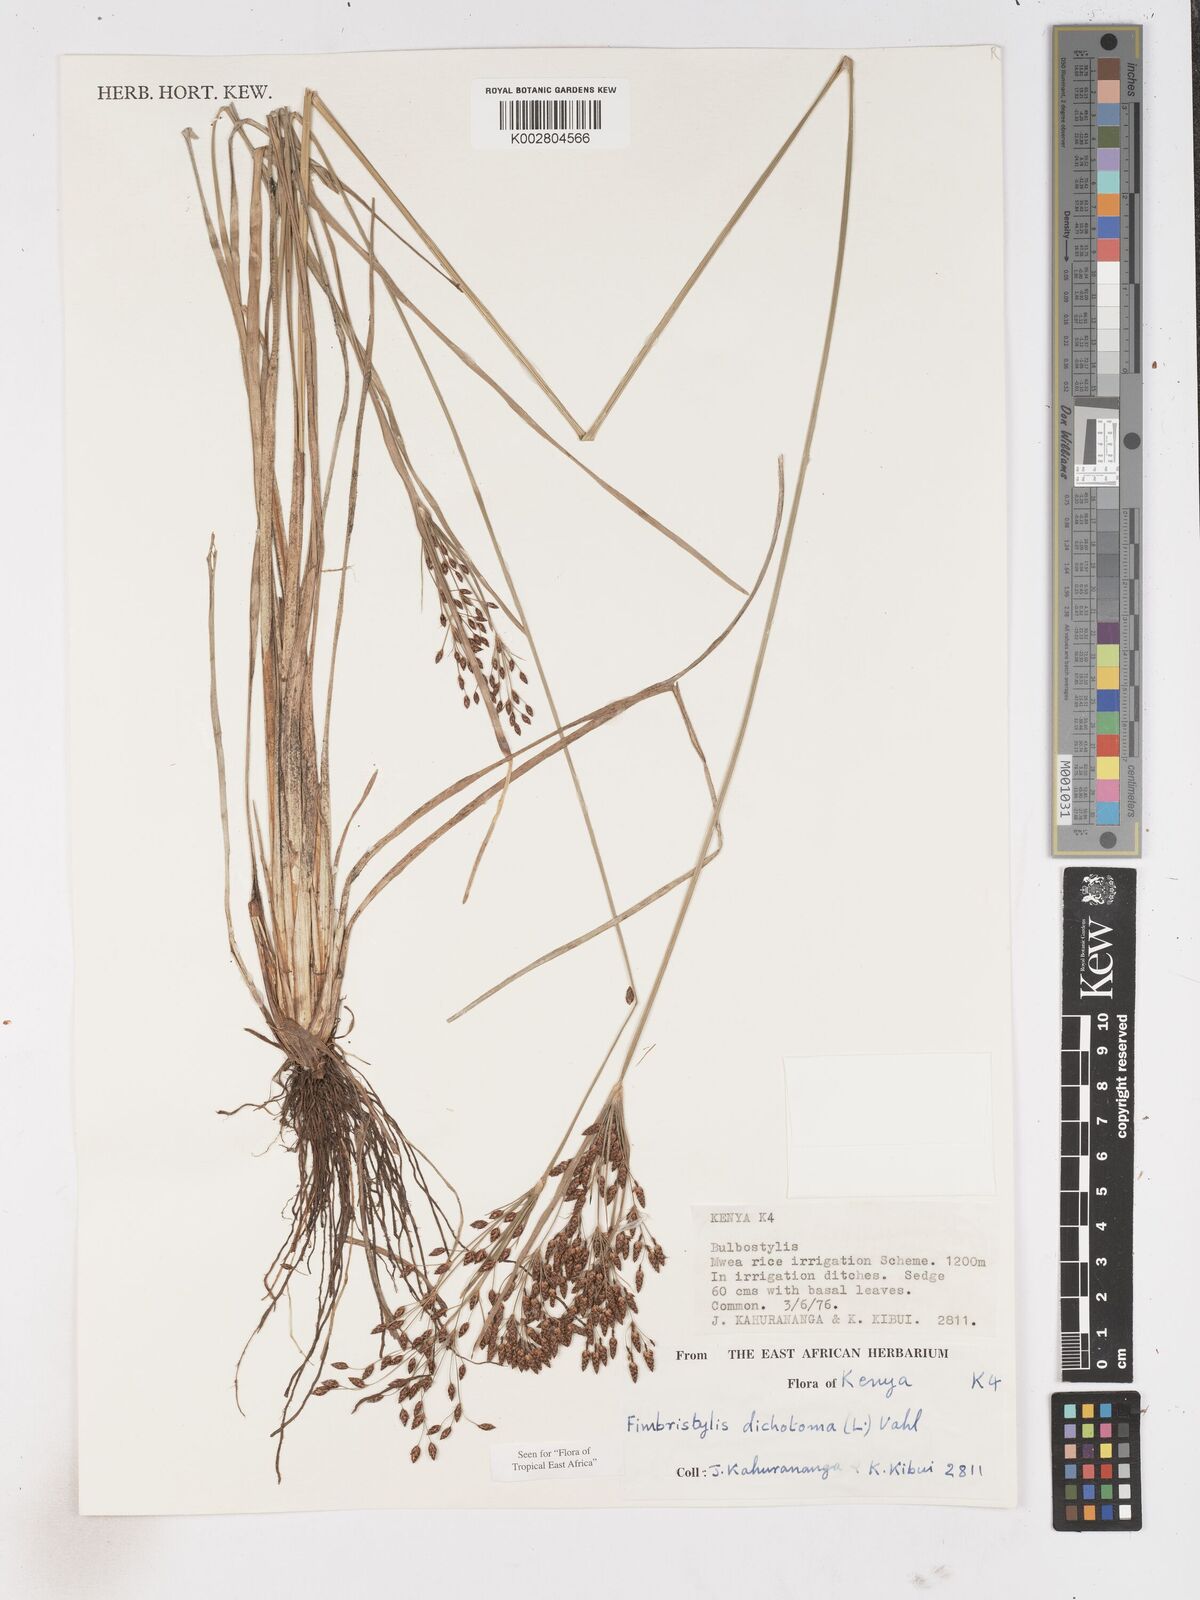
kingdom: Plantae
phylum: Tracheophyta
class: Liliopsida
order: Poales
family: Cyperaceae
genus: Fimbristylis
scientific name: Fimbristylis dichotoma
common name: Forked fimbry
